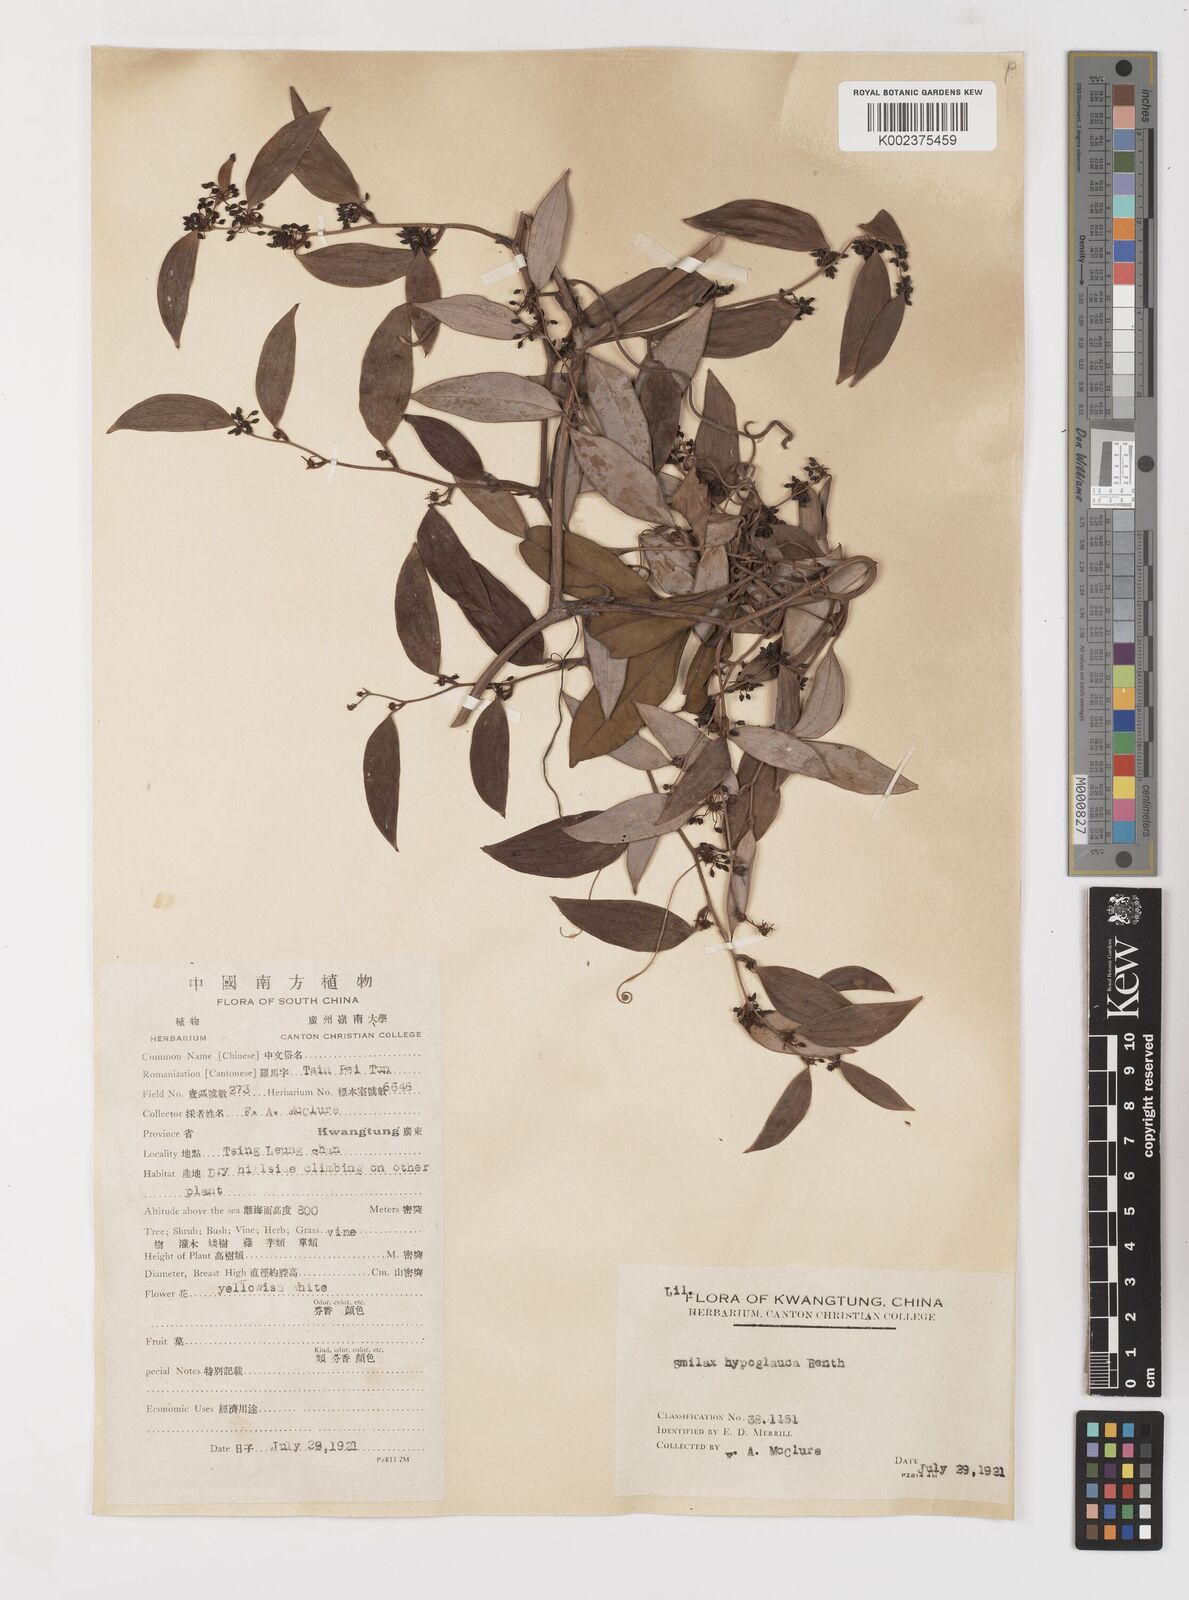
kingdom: Plantae
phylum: Tracheophyta
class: Liliopsida
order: Liliales
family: Smilacaceae
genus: Smilax
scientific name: Smilax hypoglauca
